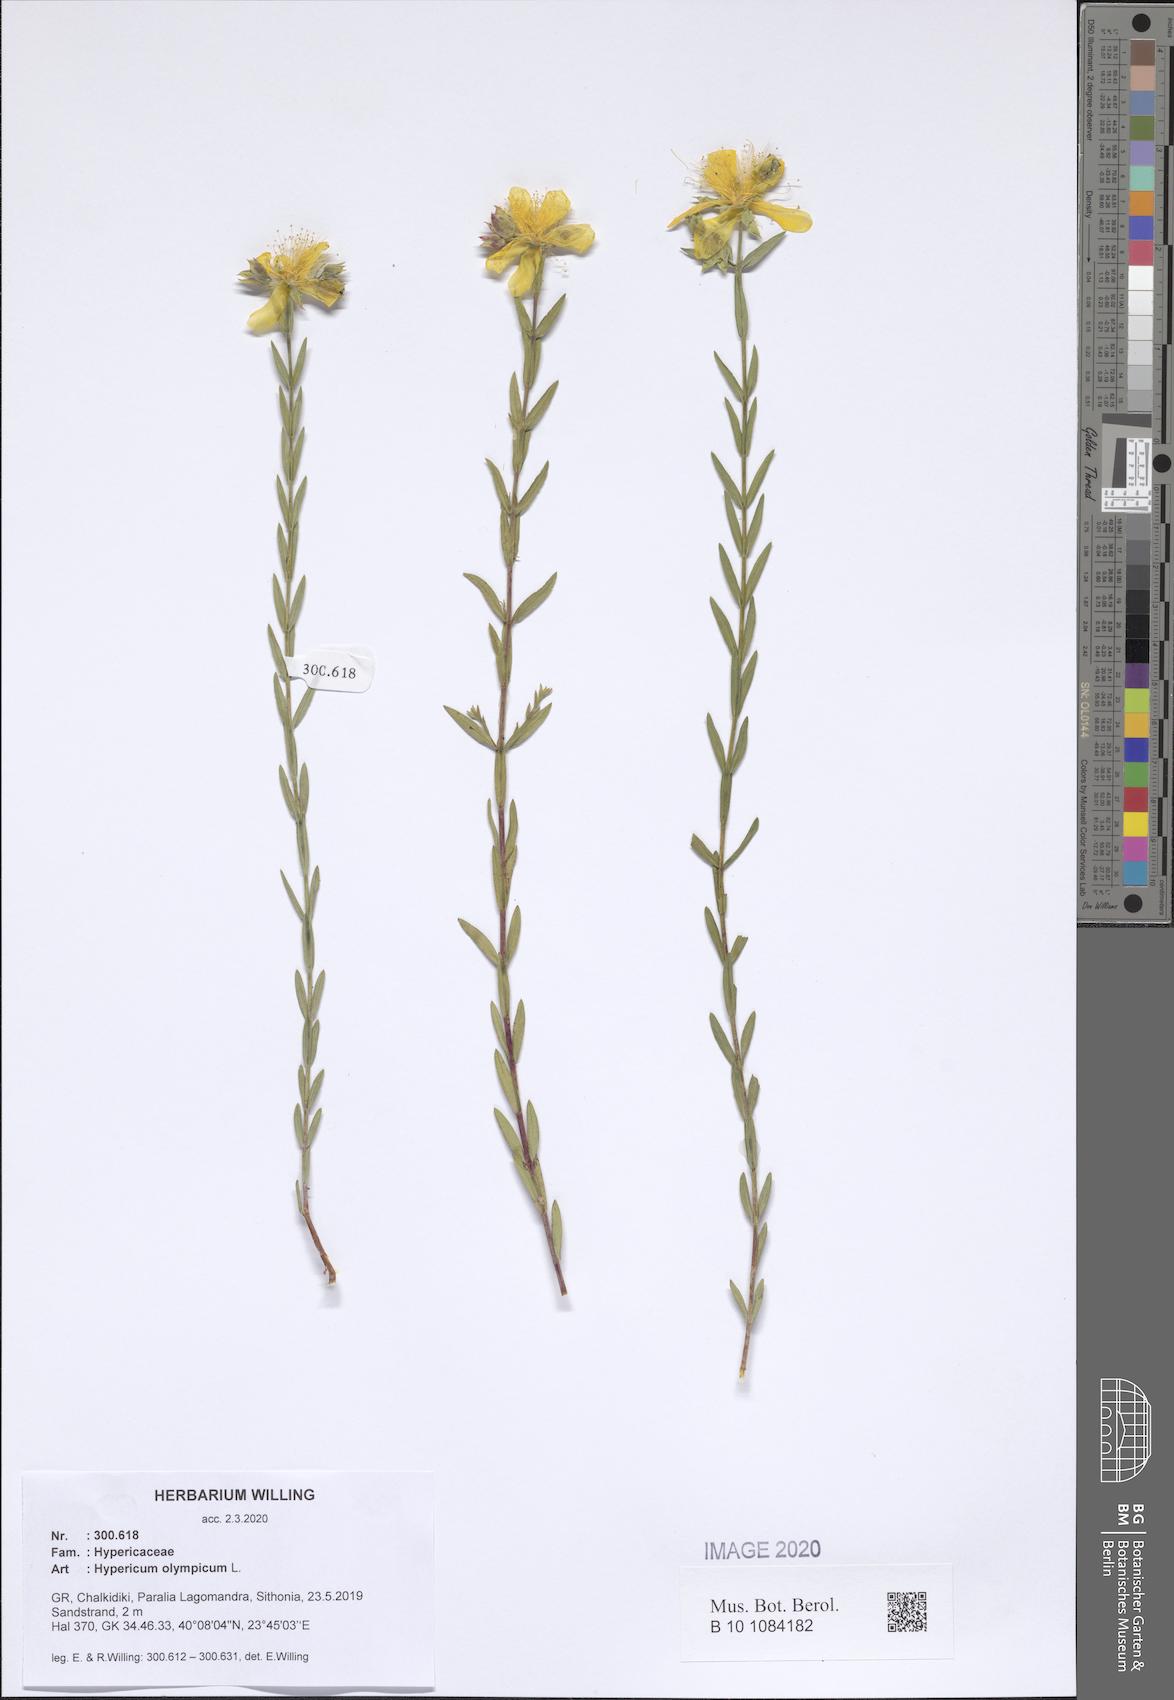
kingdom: Plantae
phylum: Tracheophyta
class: Magnoliopsida
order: Malpighiales
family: Hypericaceae
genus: Hypericum
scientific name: Hypericum olympicum
